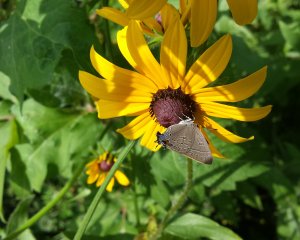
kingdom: Animalia
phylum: Arthropoda
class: Insecta
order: Lepidoptera
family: Lycaenidae
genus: Satyrium
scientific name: Satyrium calanus
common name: Banded Hairstreak
